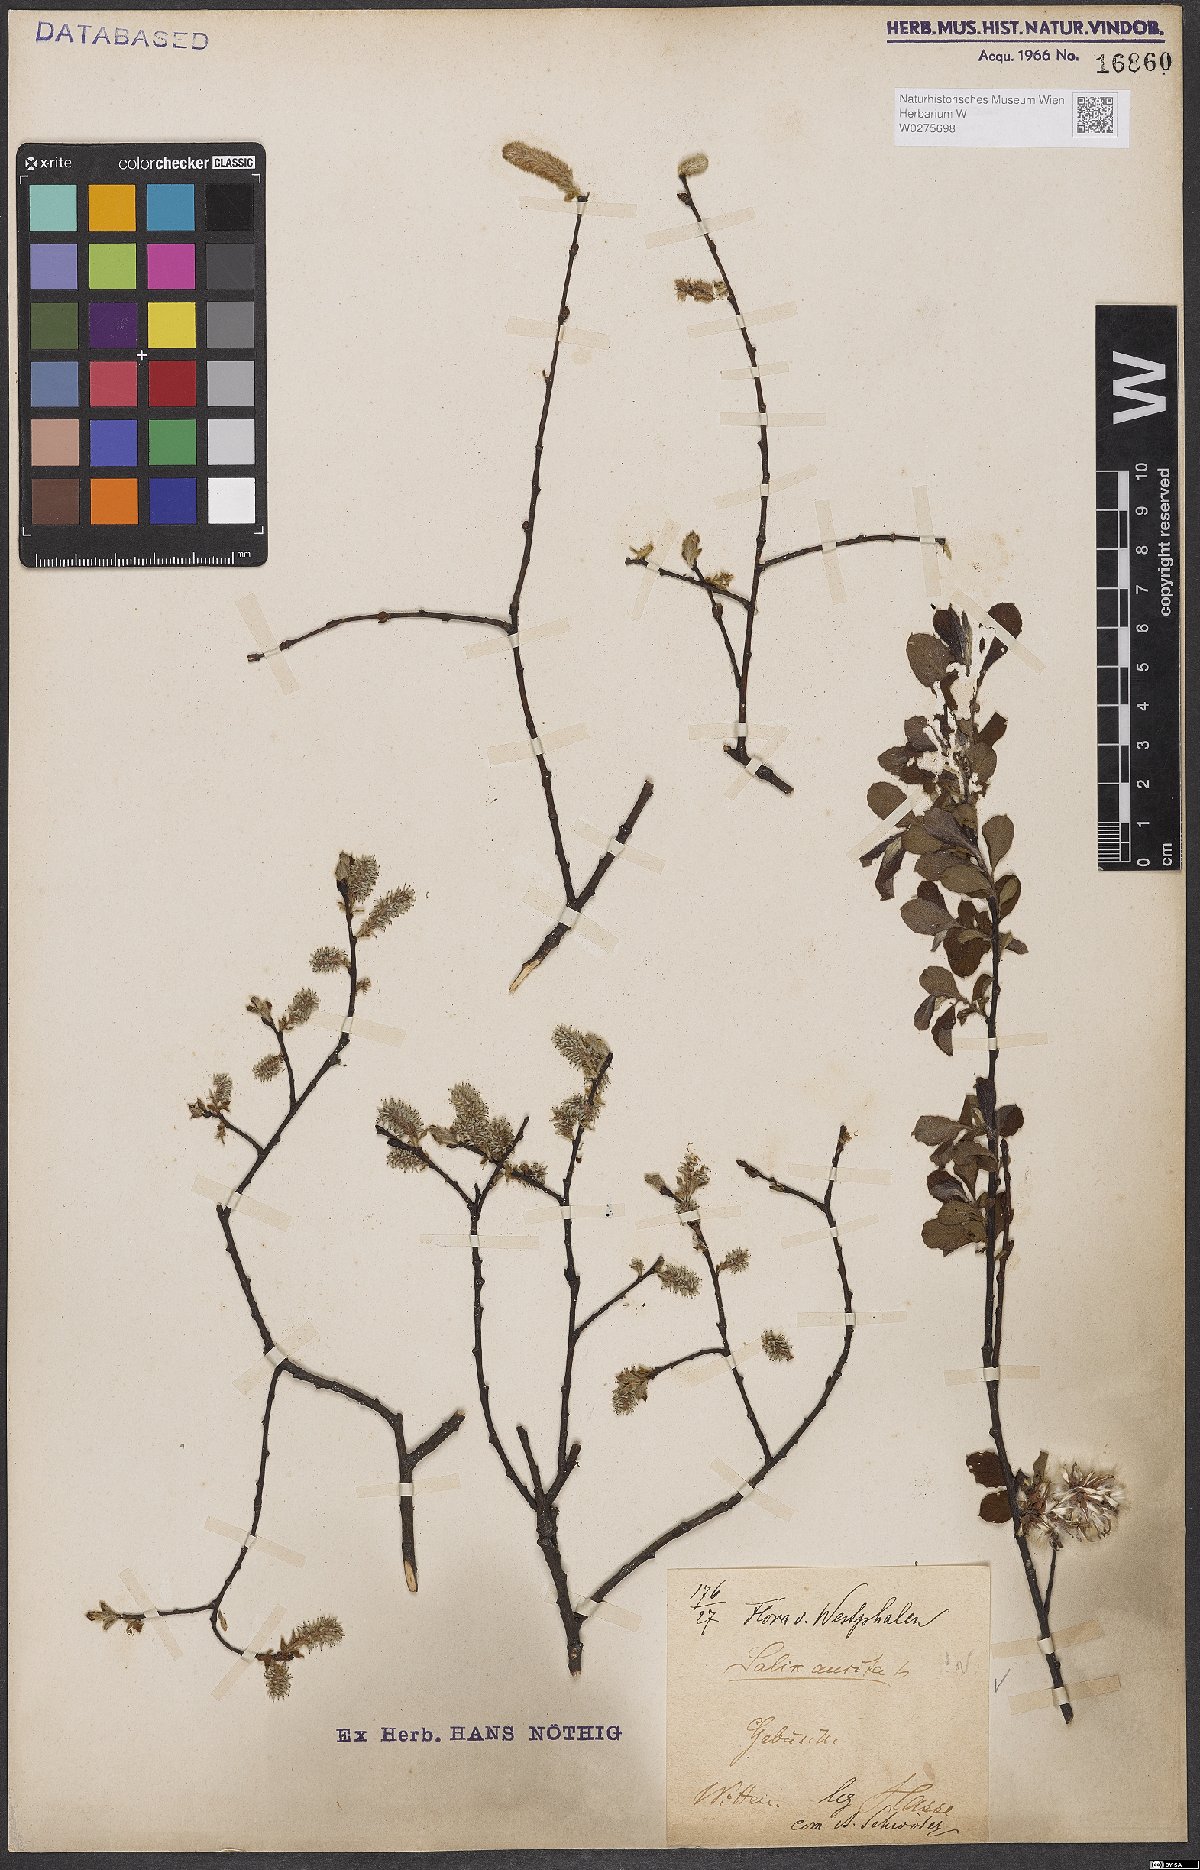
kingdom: Plantae
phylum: Tracheophyta
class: Magnoliopsida
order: Malpighiales
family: Salicaceae
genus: Salix
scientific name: Salix aurita
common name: Eared willow
